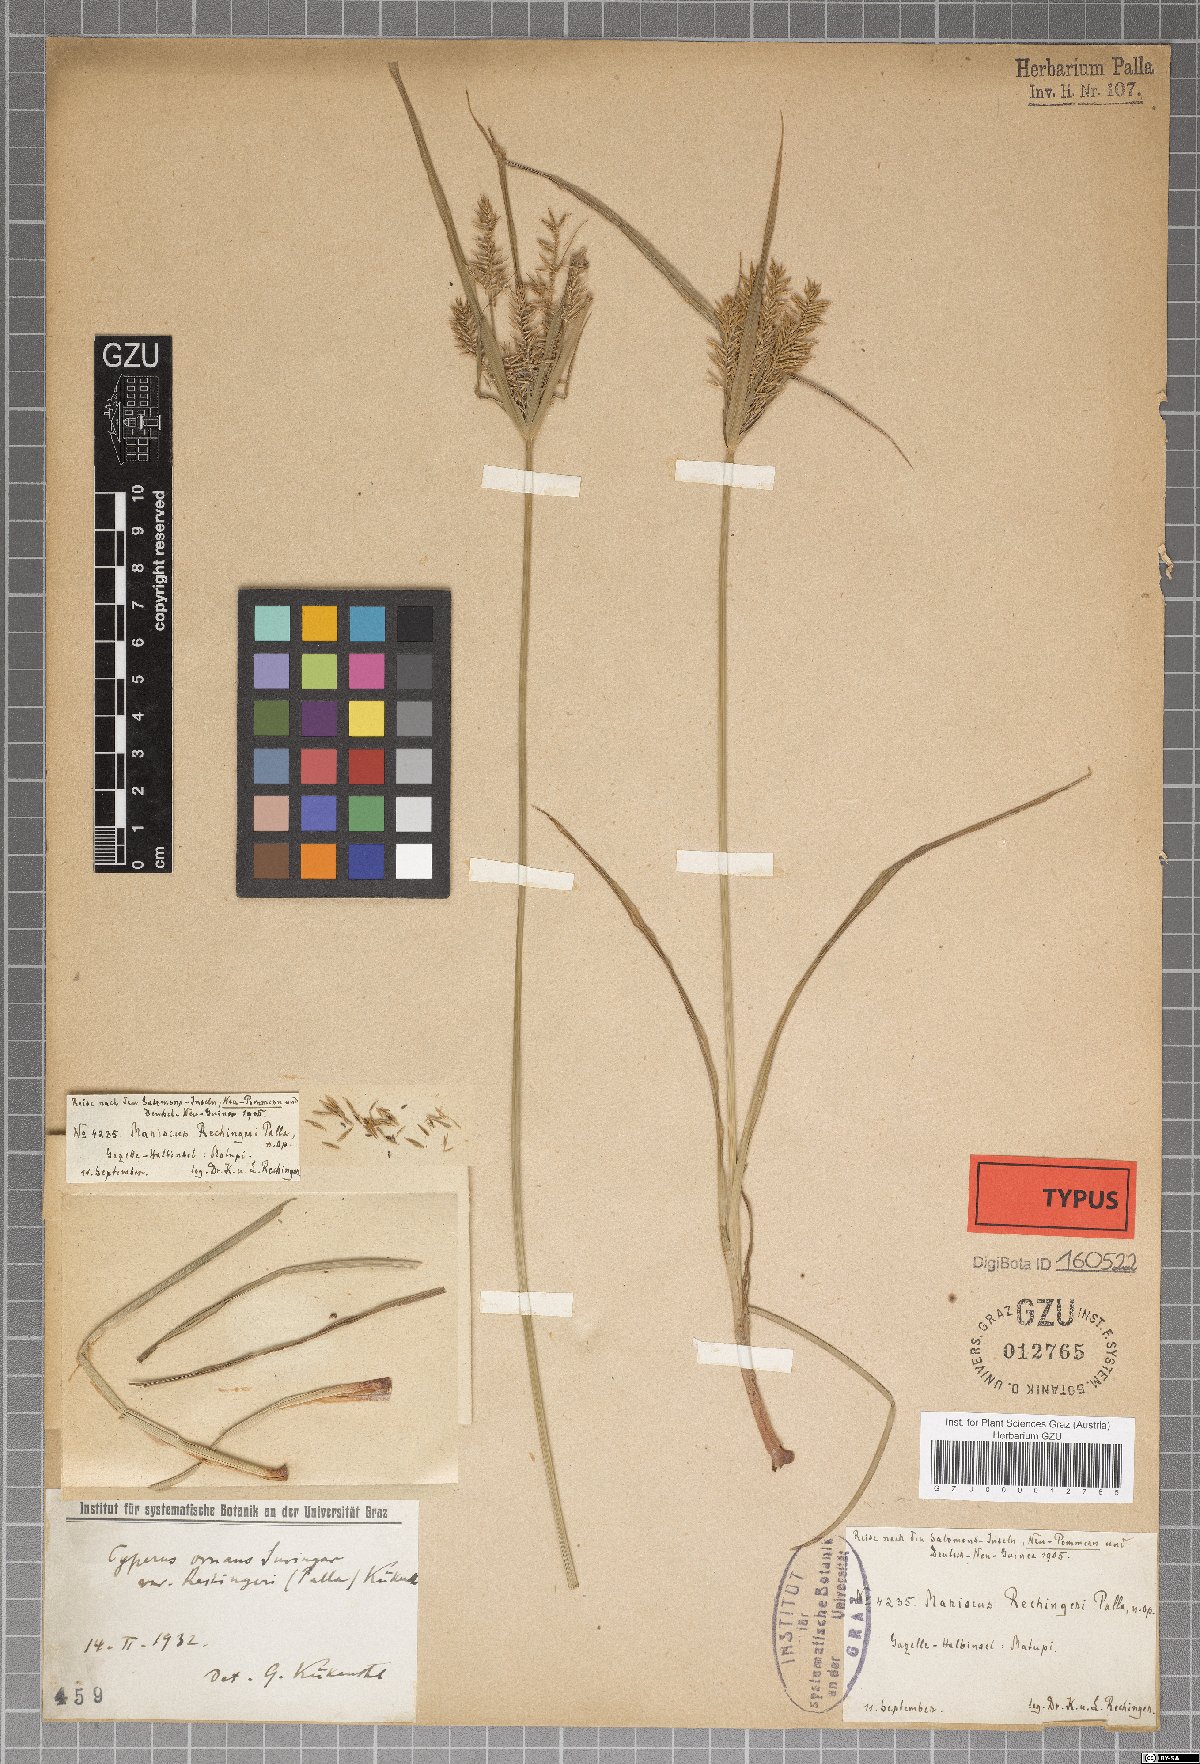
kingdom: Plantae
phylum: Tracheophyta
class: Liliopsida
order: Poales
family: Cyperaceae
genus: Cyperus
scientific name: Cyperus stenophyllus
